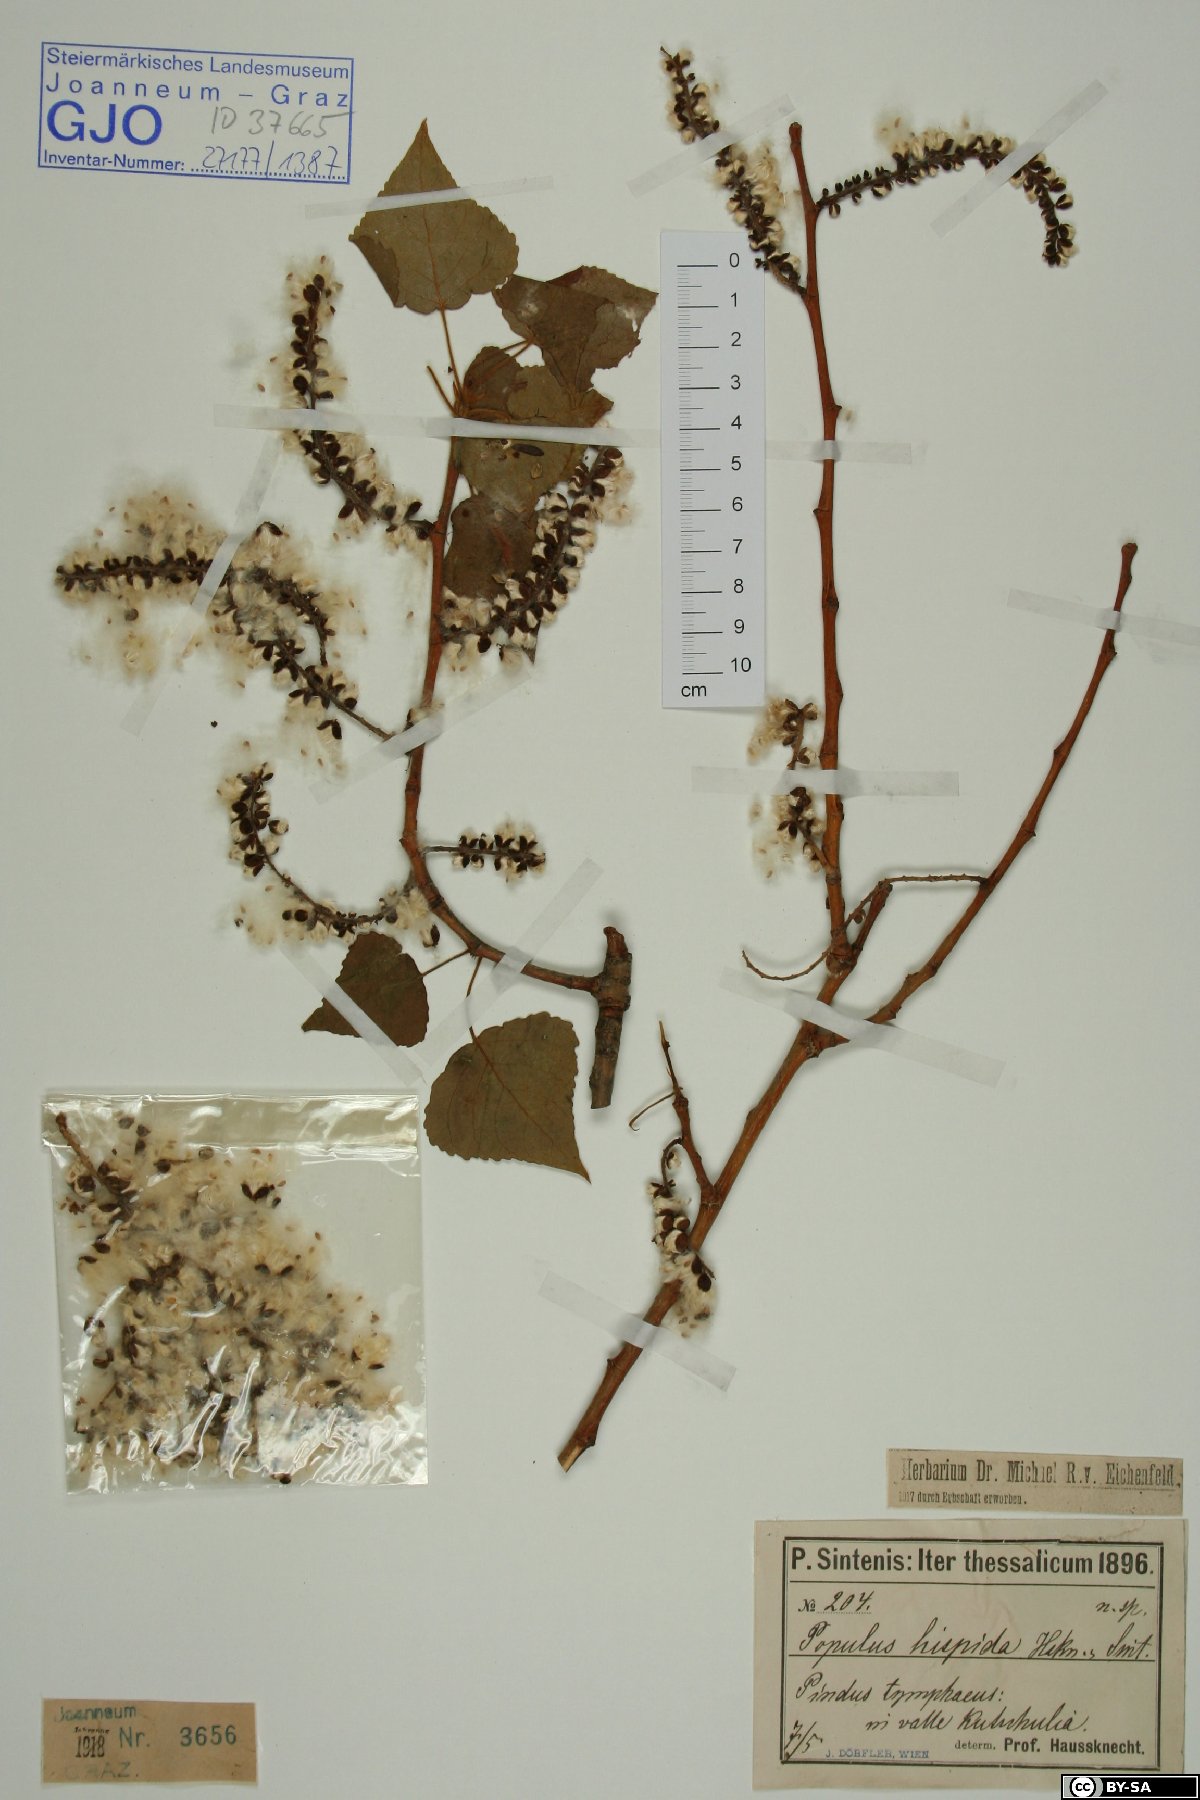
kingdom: Plantae
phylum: Tracheophyta
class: Magnoliopsida
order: Malpighiales
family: Salicaceae
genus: Populus
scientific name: Populus tremuloides
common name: Quaking aspen
